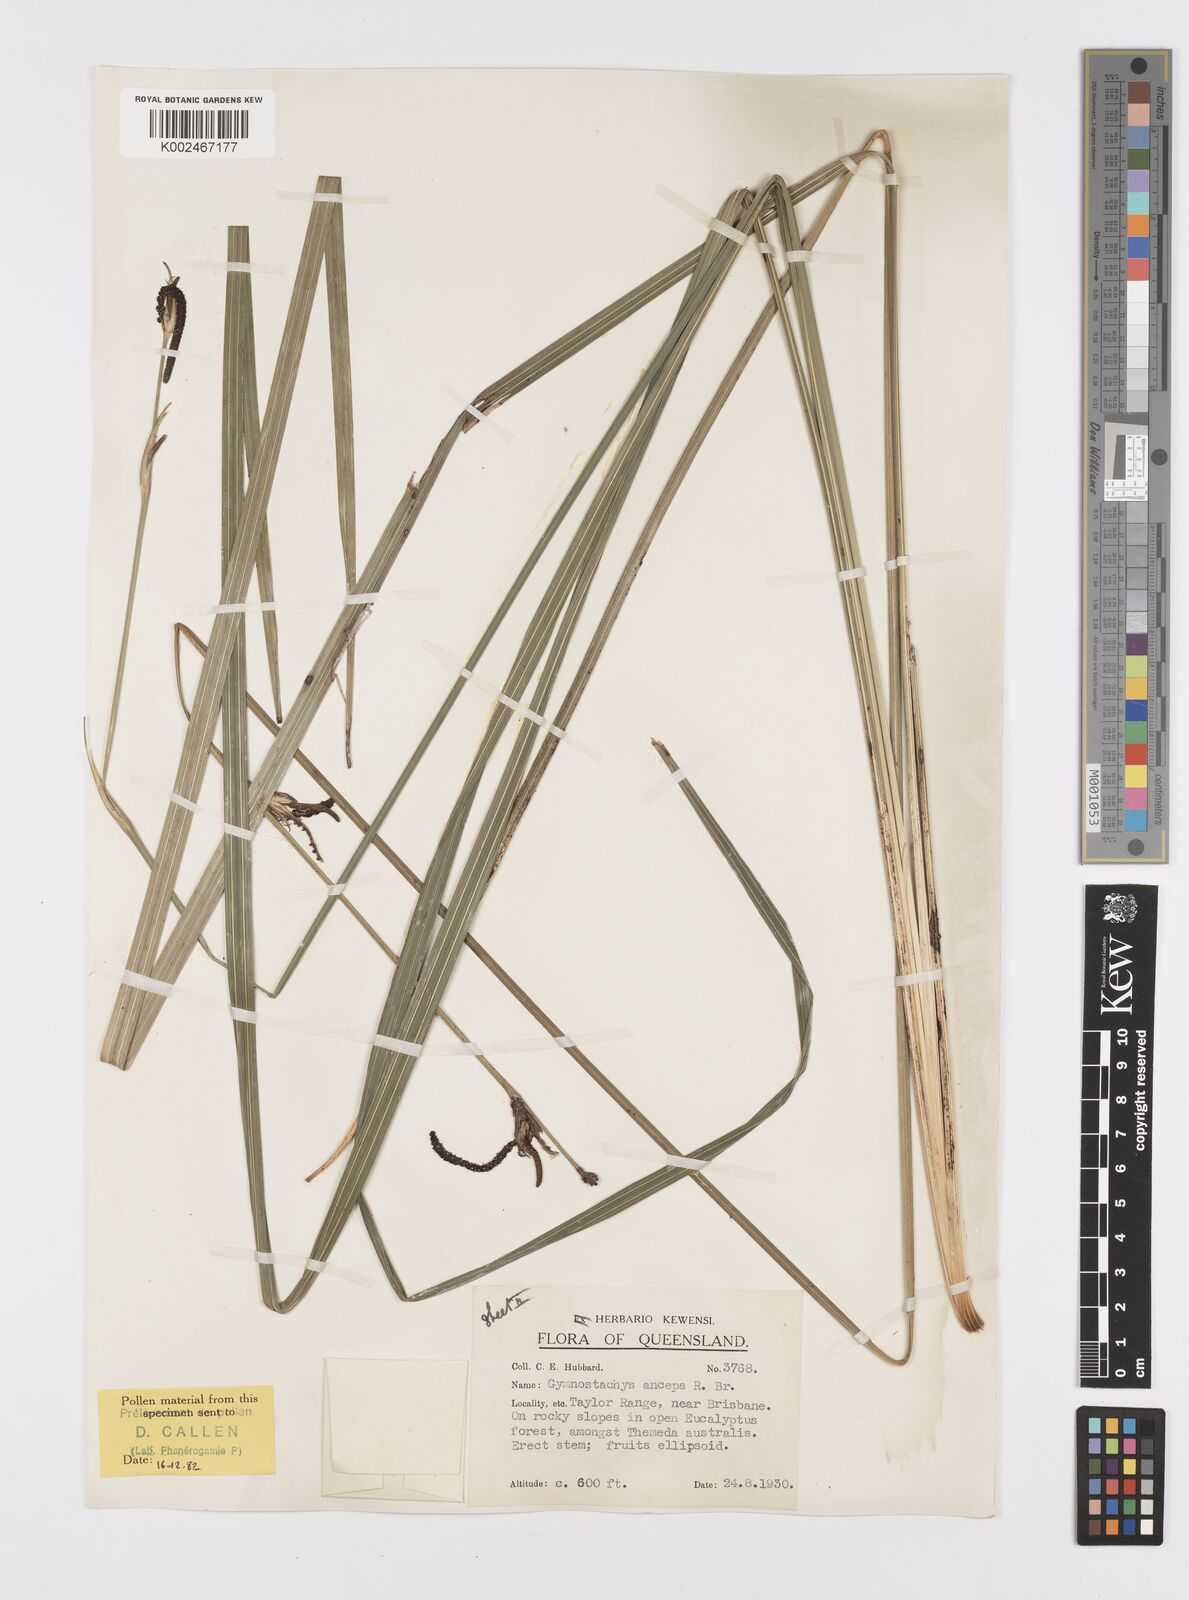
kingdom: Plantae
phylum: Tracheophyta
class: Liliopsida
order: Alismatales
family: Araceae
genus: Gymnostachys
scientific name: Gymnostachys anceps
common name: Settler's-flax
